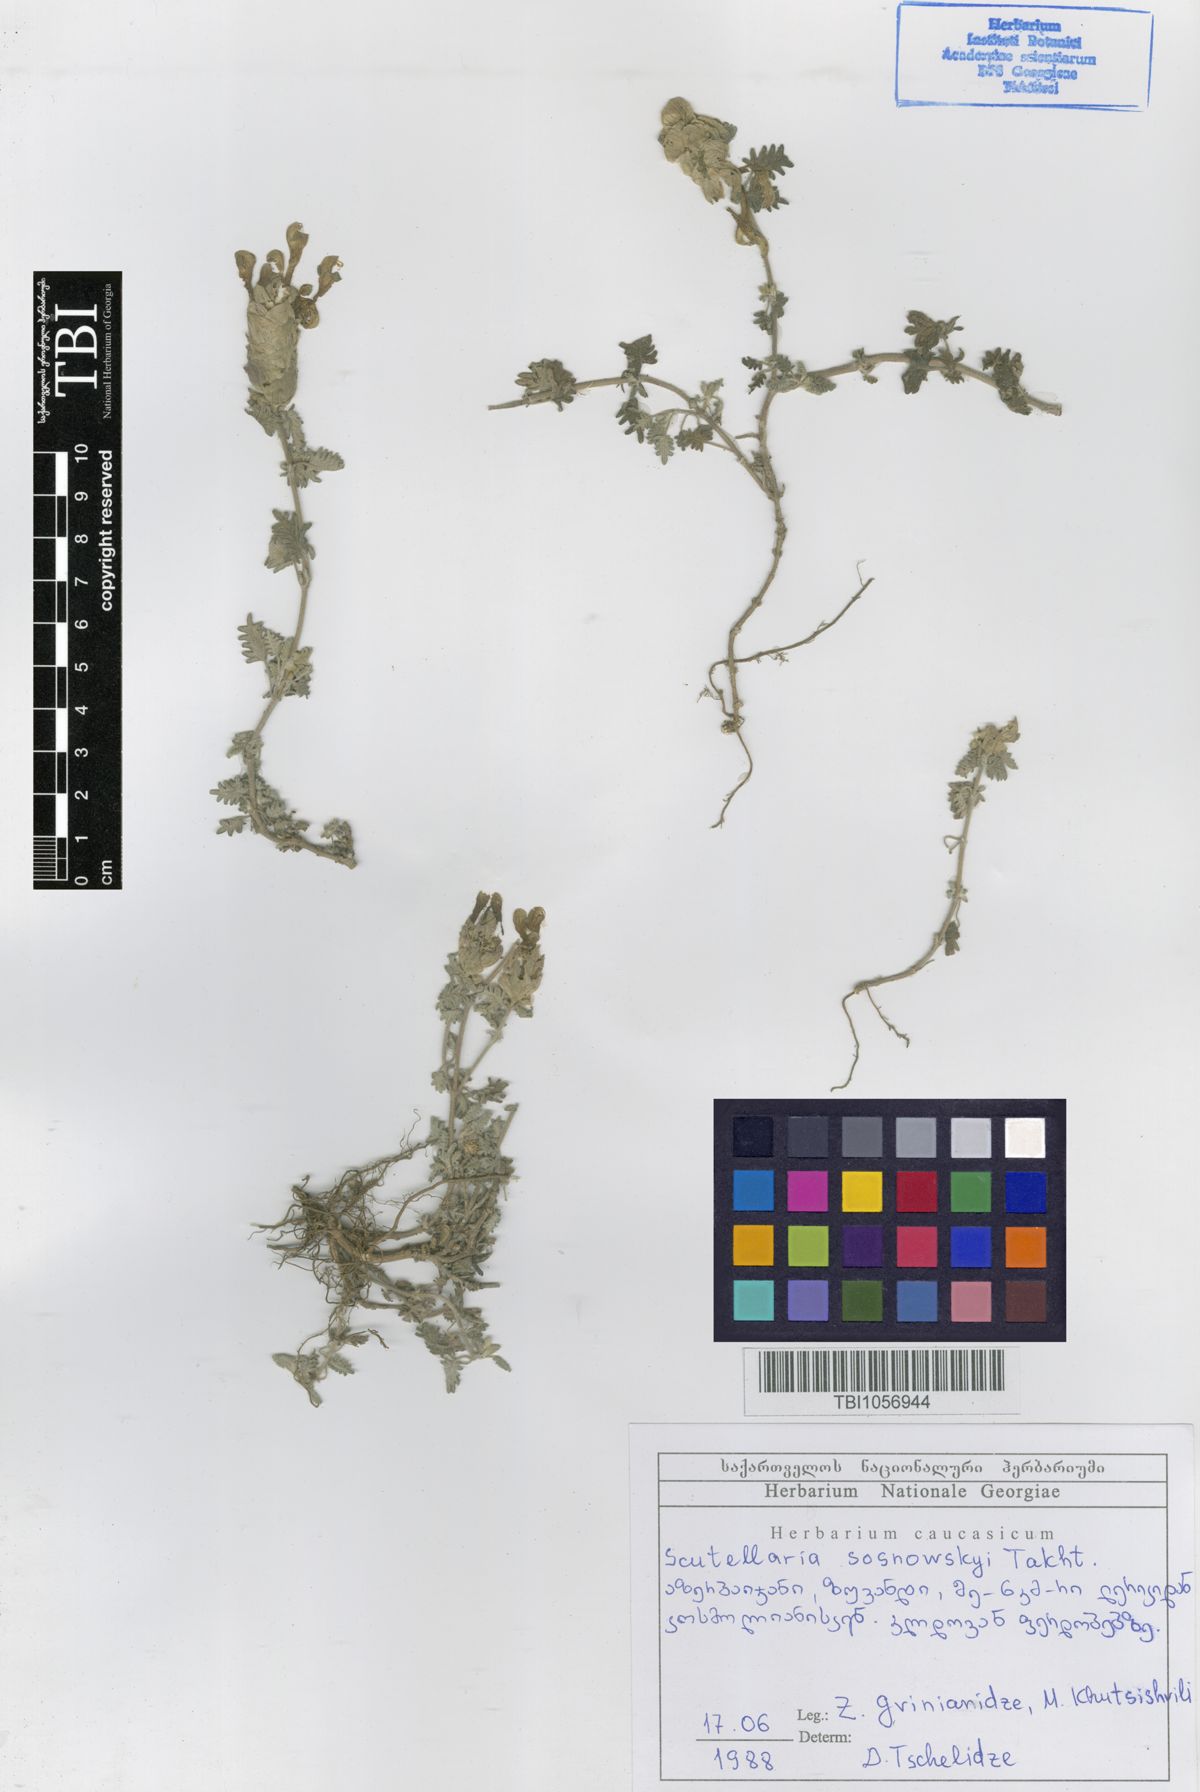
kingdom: Plantae
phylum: Tracheophyta
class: Magnoliopsida
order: Lamiales
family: Lamiaceae
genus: Scutellaria
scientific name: Scutellaria sosnowskyi
